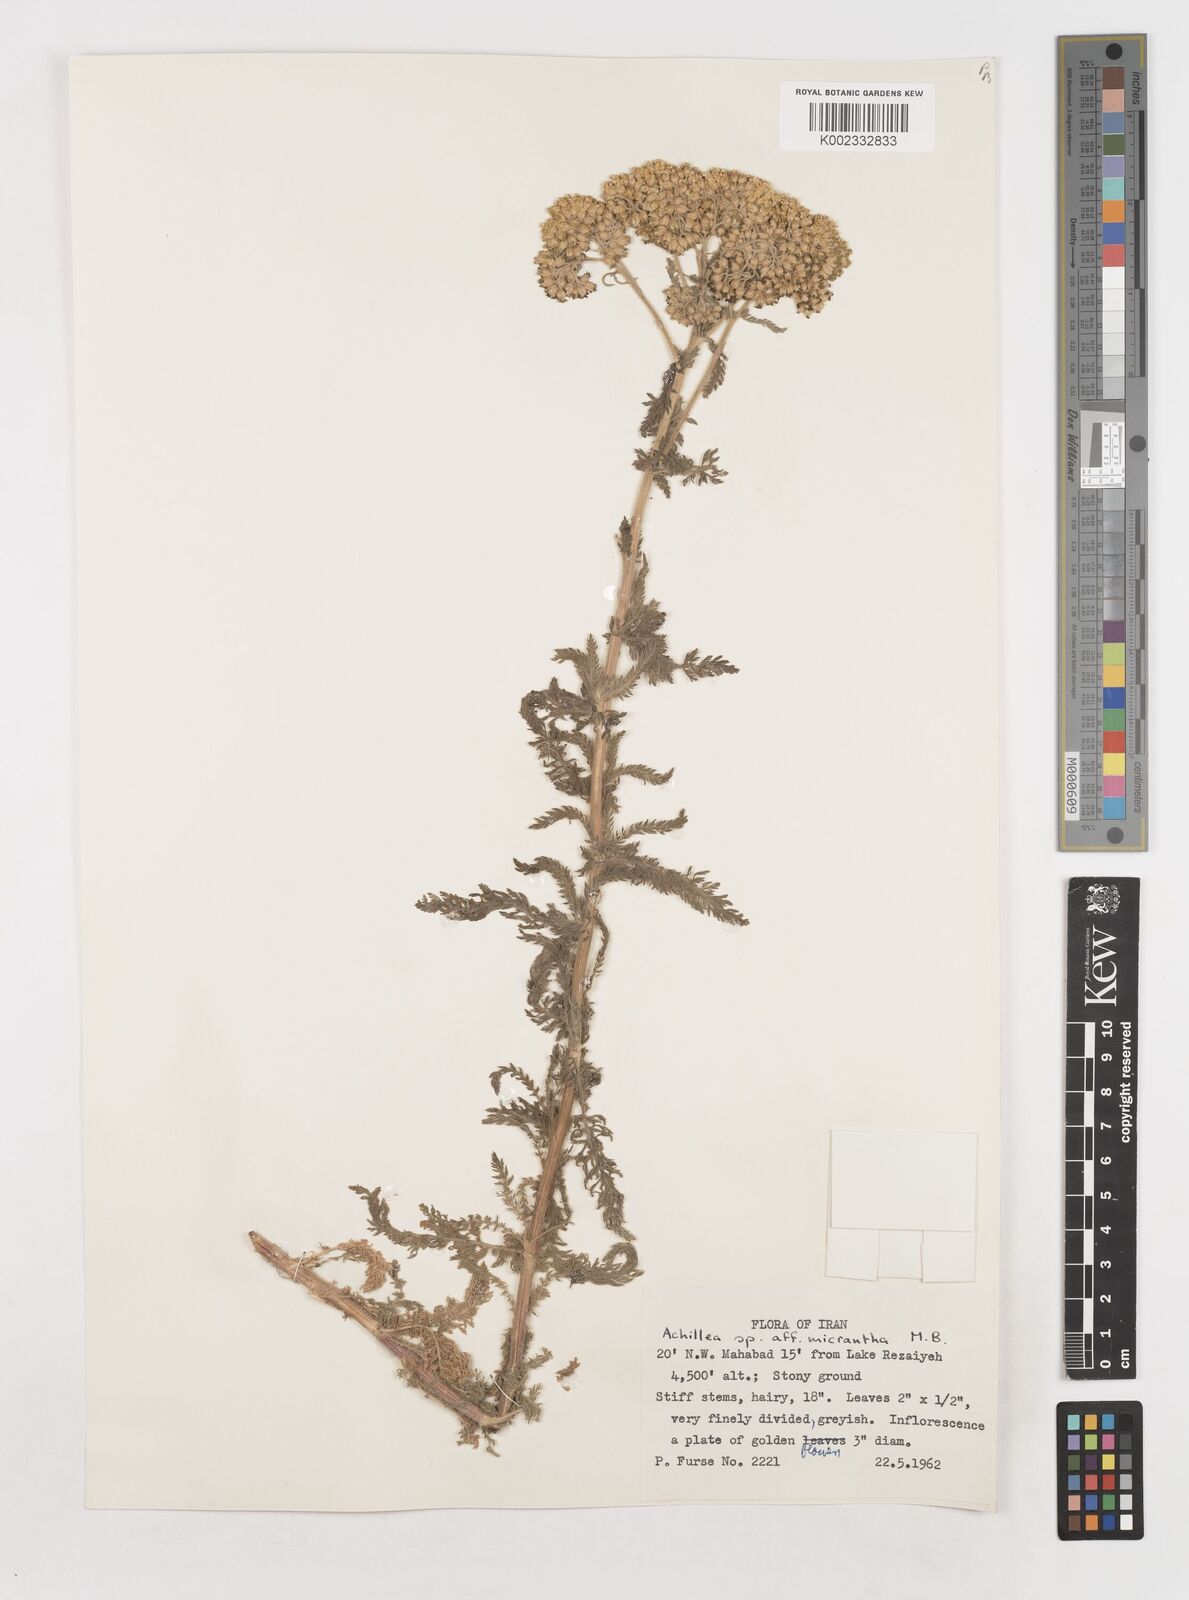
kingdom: Plantae
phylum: Tracheophyta
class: Magnoliopsida
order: Asterales
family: Asteraceae
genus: Achillea
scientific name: Achillea arabica
